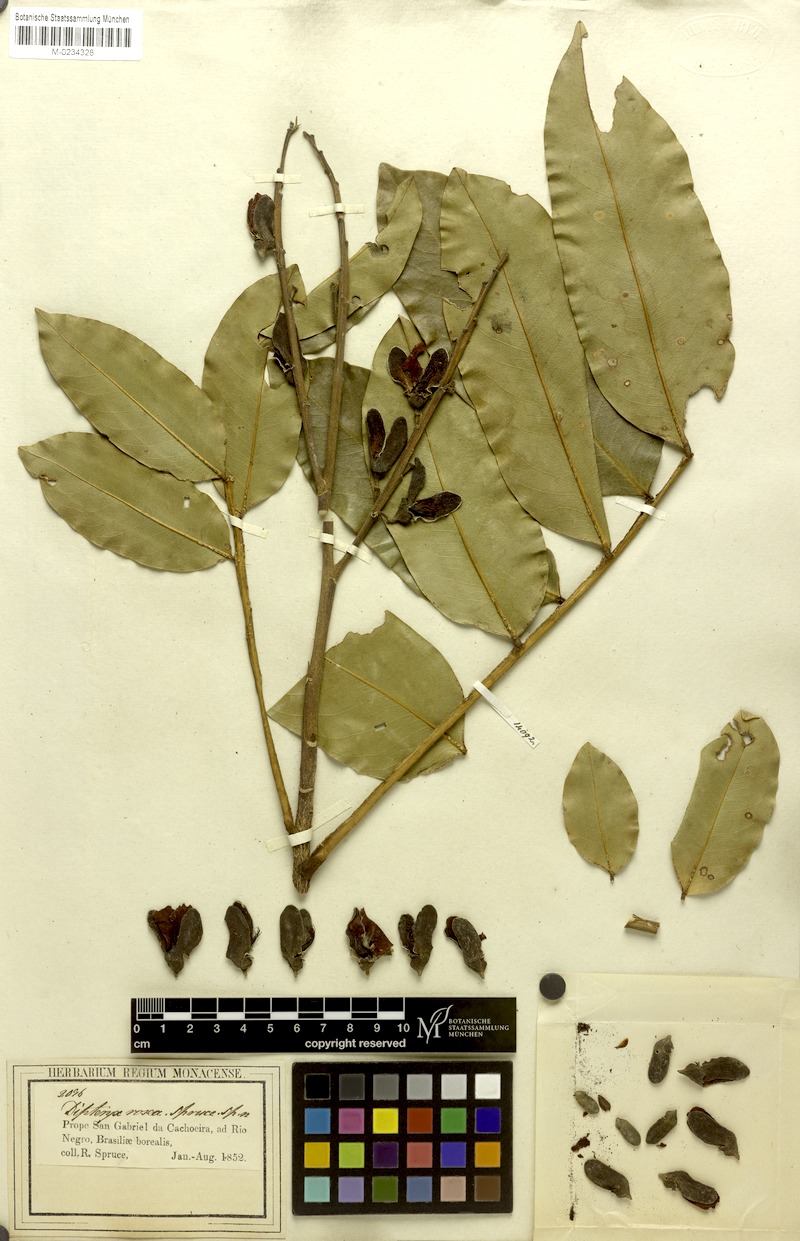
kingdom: Plantae
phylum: Tracheophyta
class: Magnoliopsida
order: Fabales
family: Fabaceae
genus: Dipteryx
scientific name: Dipteryx rosea
